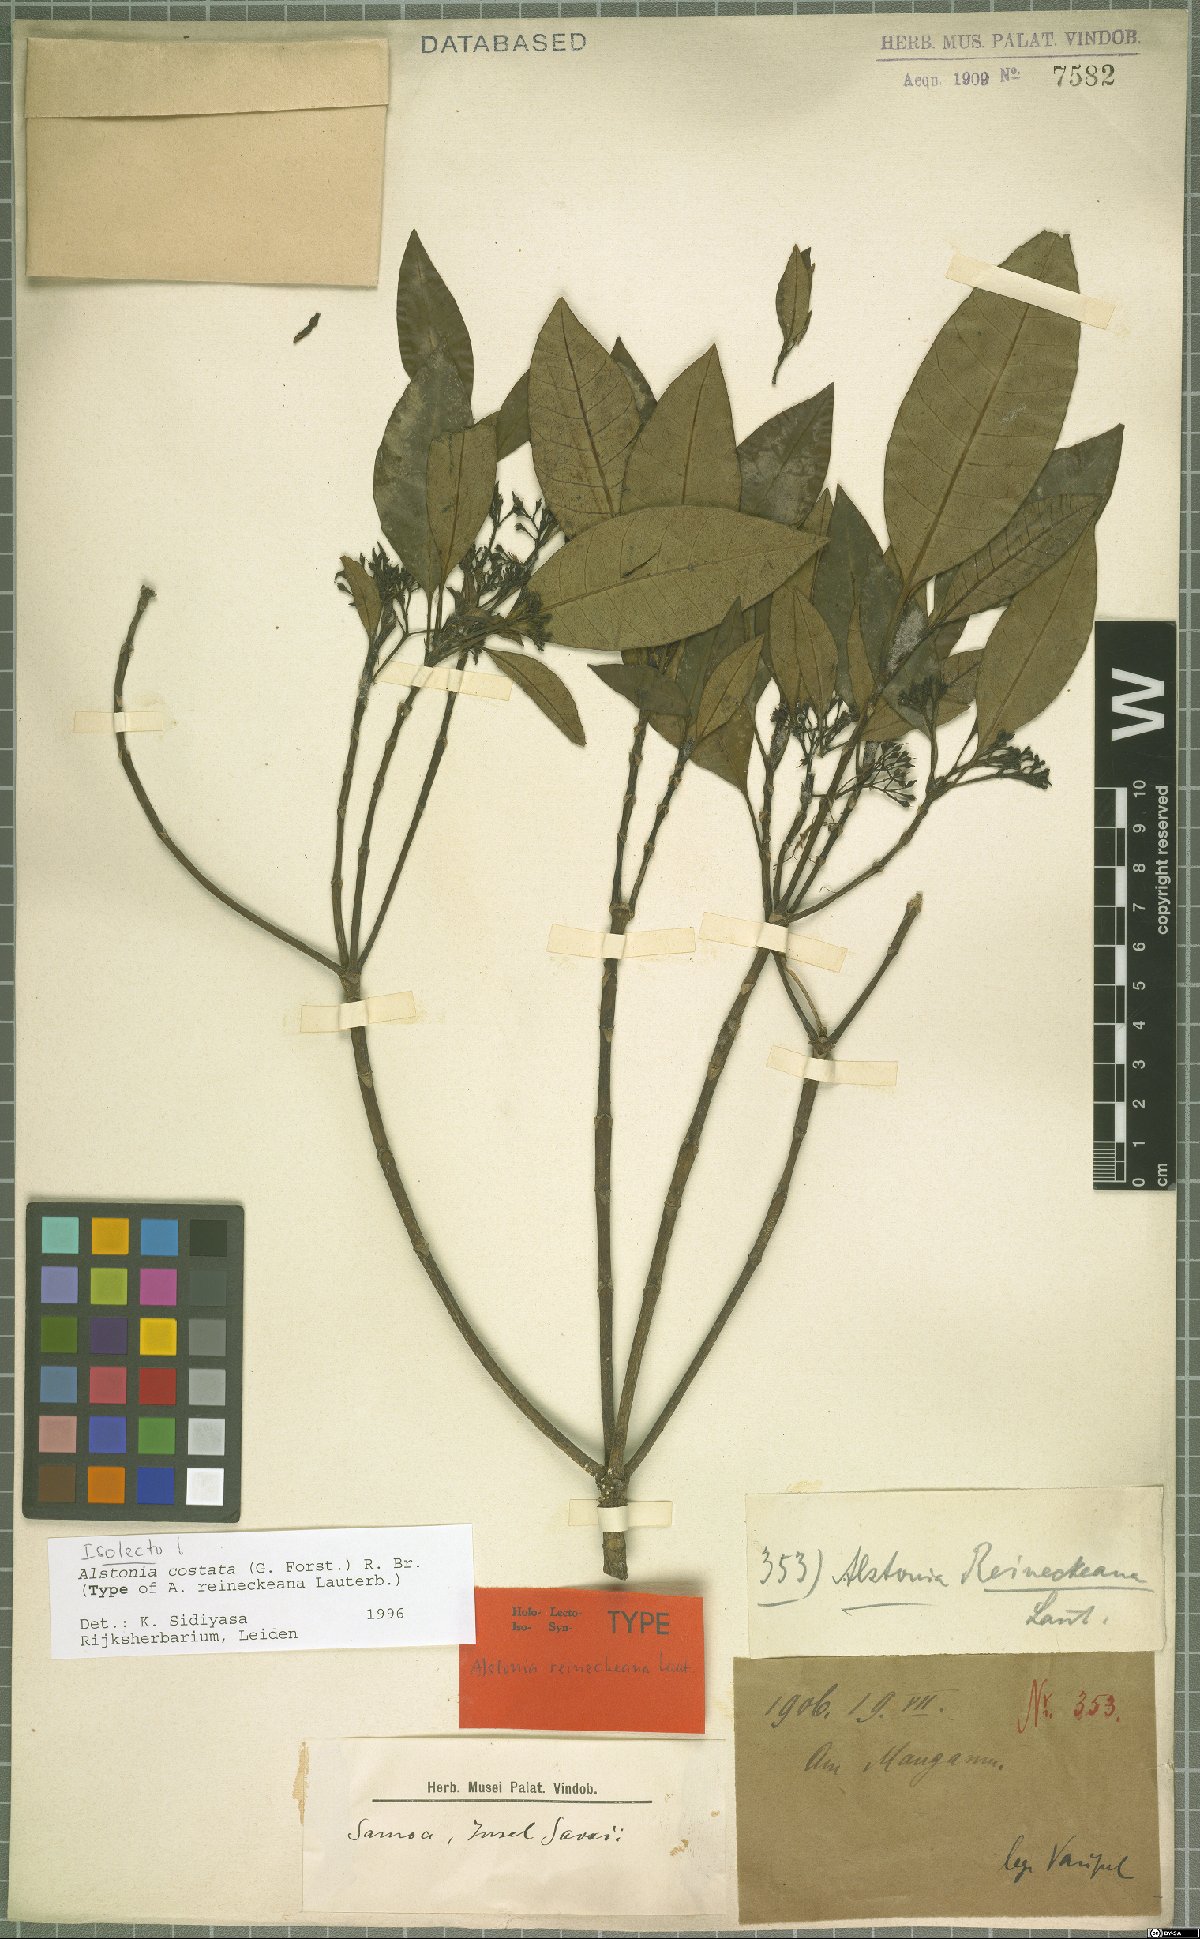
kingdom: Plantae
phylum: Tracheophyta
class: Magnoliopsida
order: Gentianales
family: Apocynaceae
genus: Alstonia
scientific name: Alstonia costata
